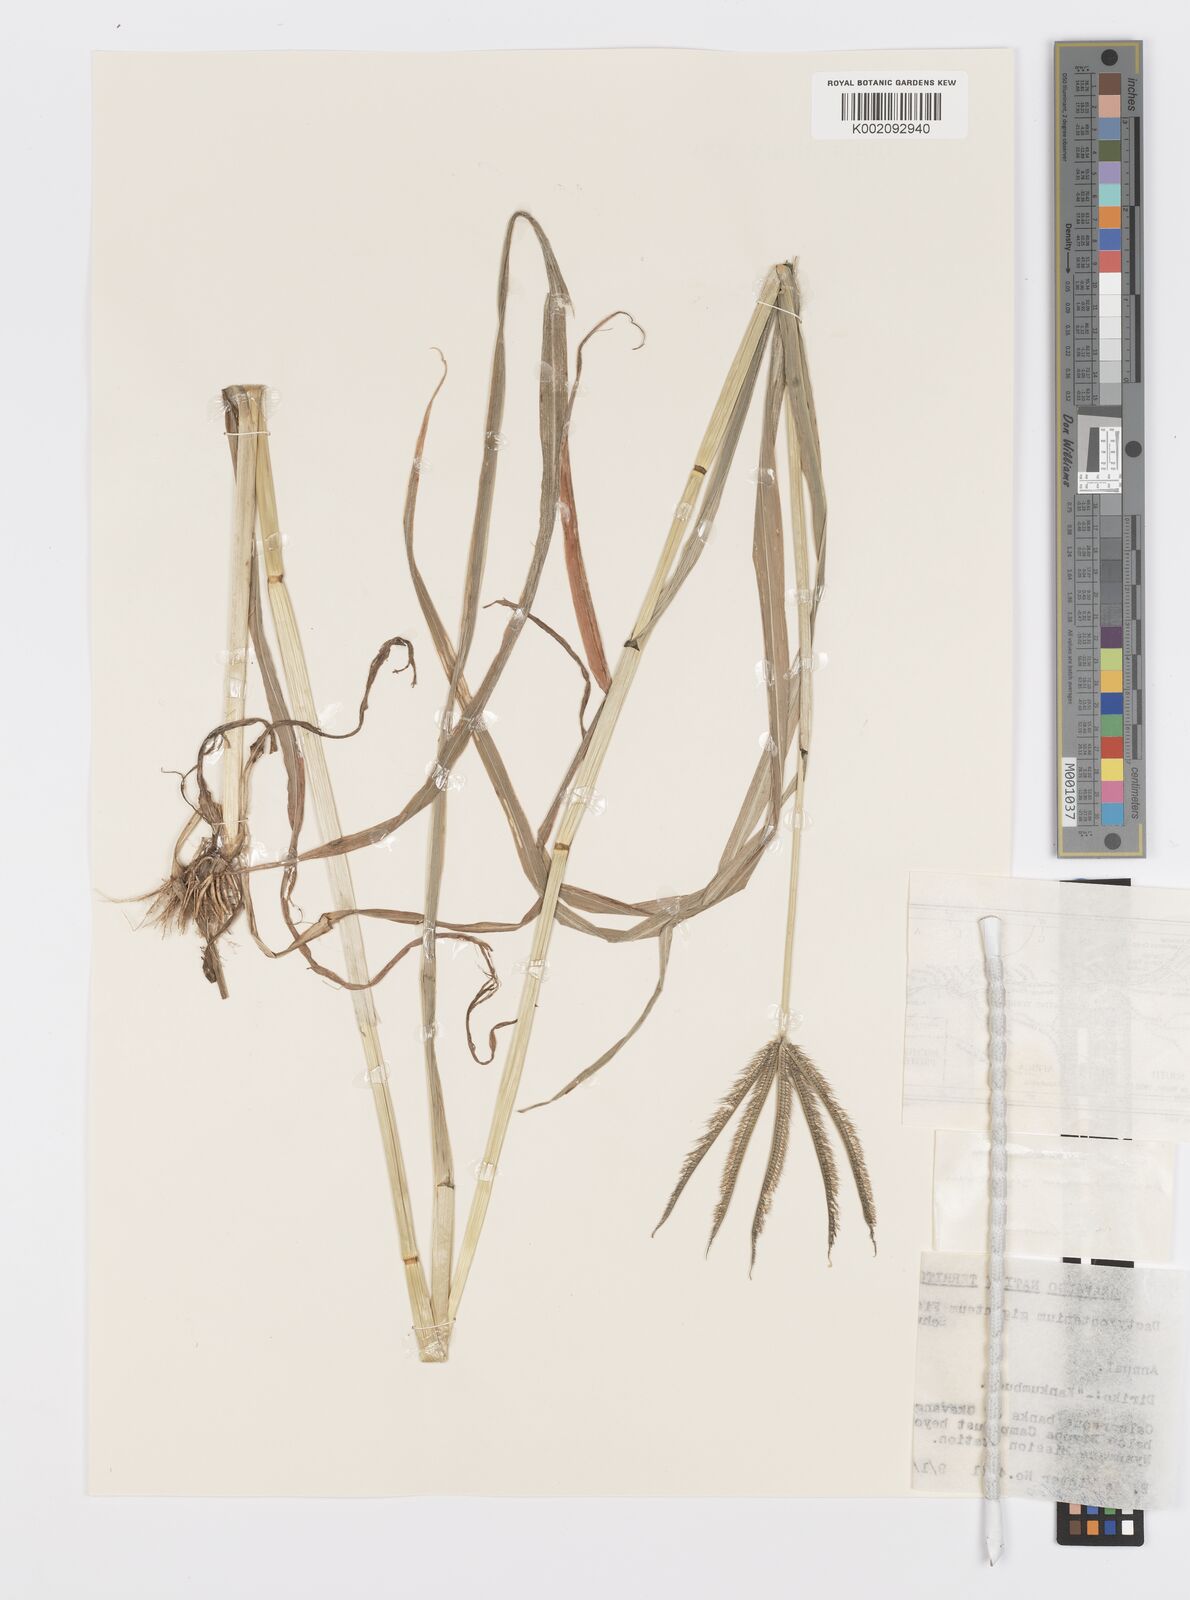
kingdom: Plantae
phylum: Tracheophyta
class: Liliopsida
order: Poales
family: Poaceae
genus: Dactyloctenium
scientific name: Dactyloctenium giganteum
